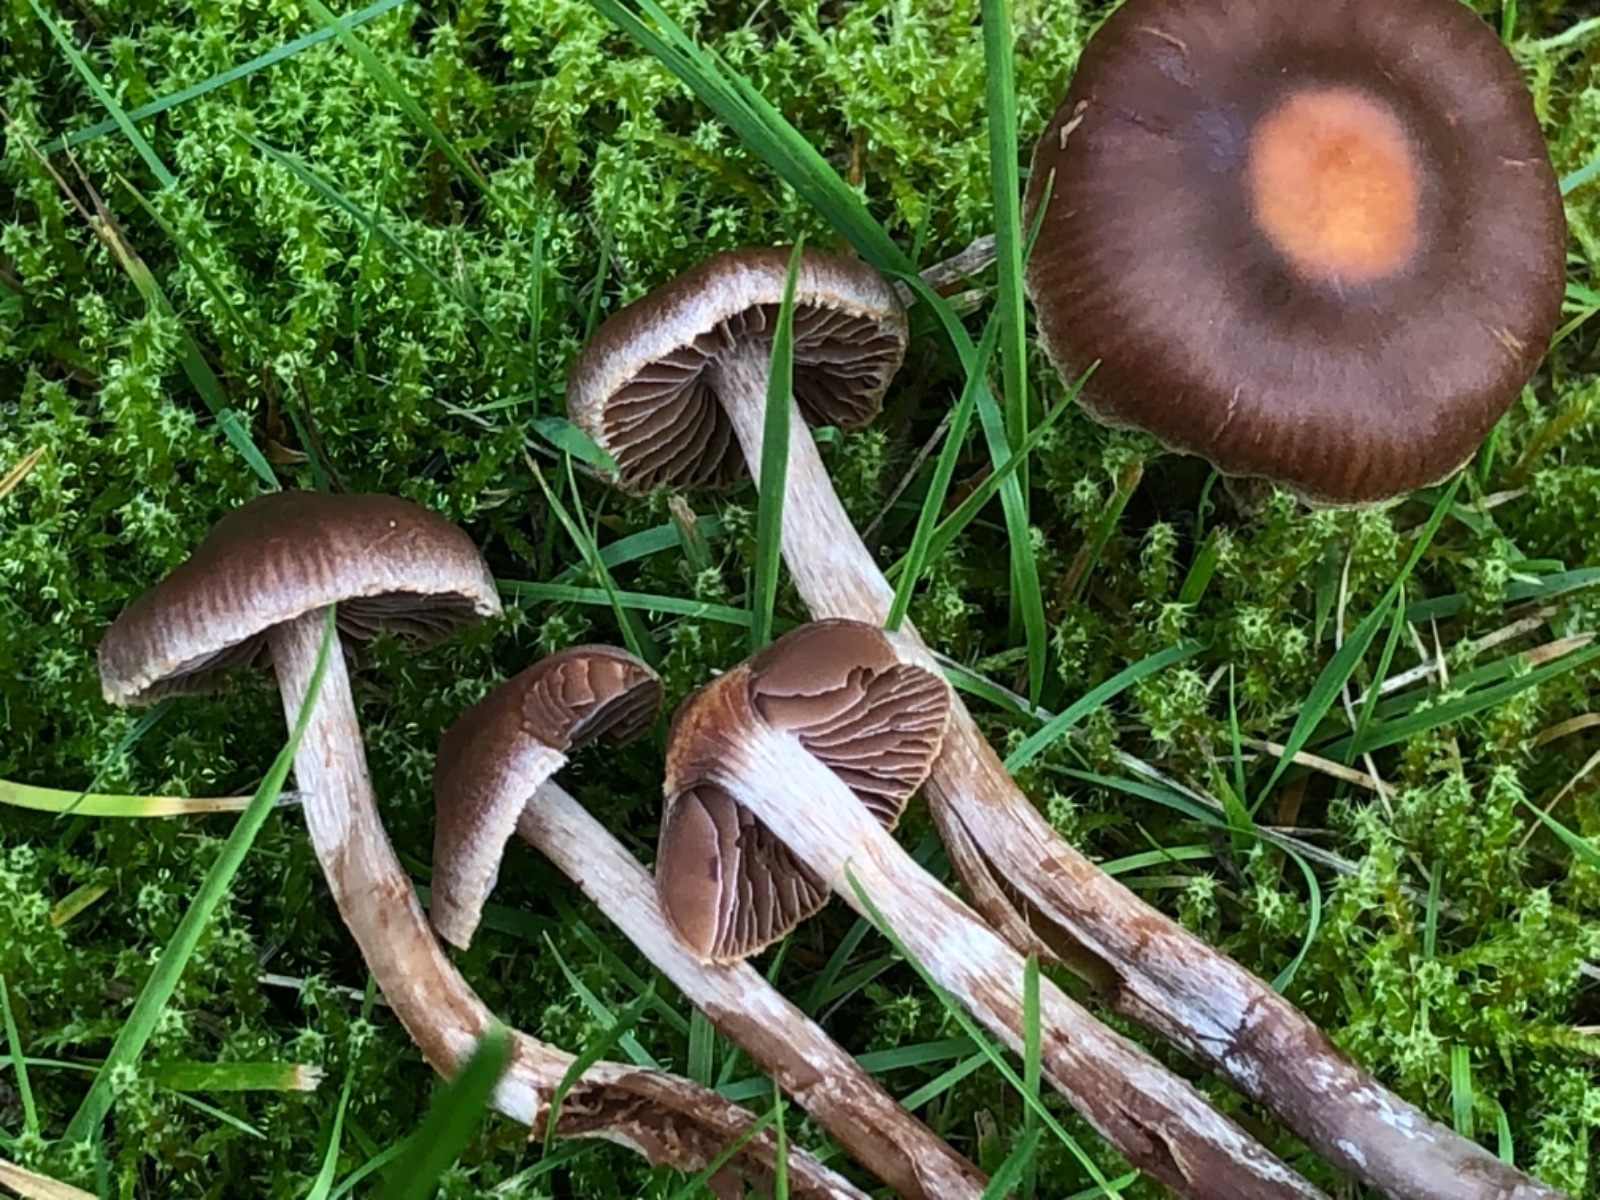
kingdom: Fungi
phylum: Basidiomycota
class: Agaricomycetes
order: Agaricales
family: Cortinariaceae
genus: Cortinarius
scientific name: Cortinarius
